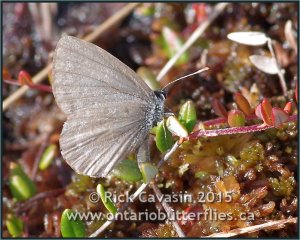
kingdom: Animalia
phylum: Arthropoda
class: Insecta
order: Lepidoptera
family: Lycaenidae
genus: Celastrina
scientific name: Celastrina lucia
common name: Northern Spring Azure
